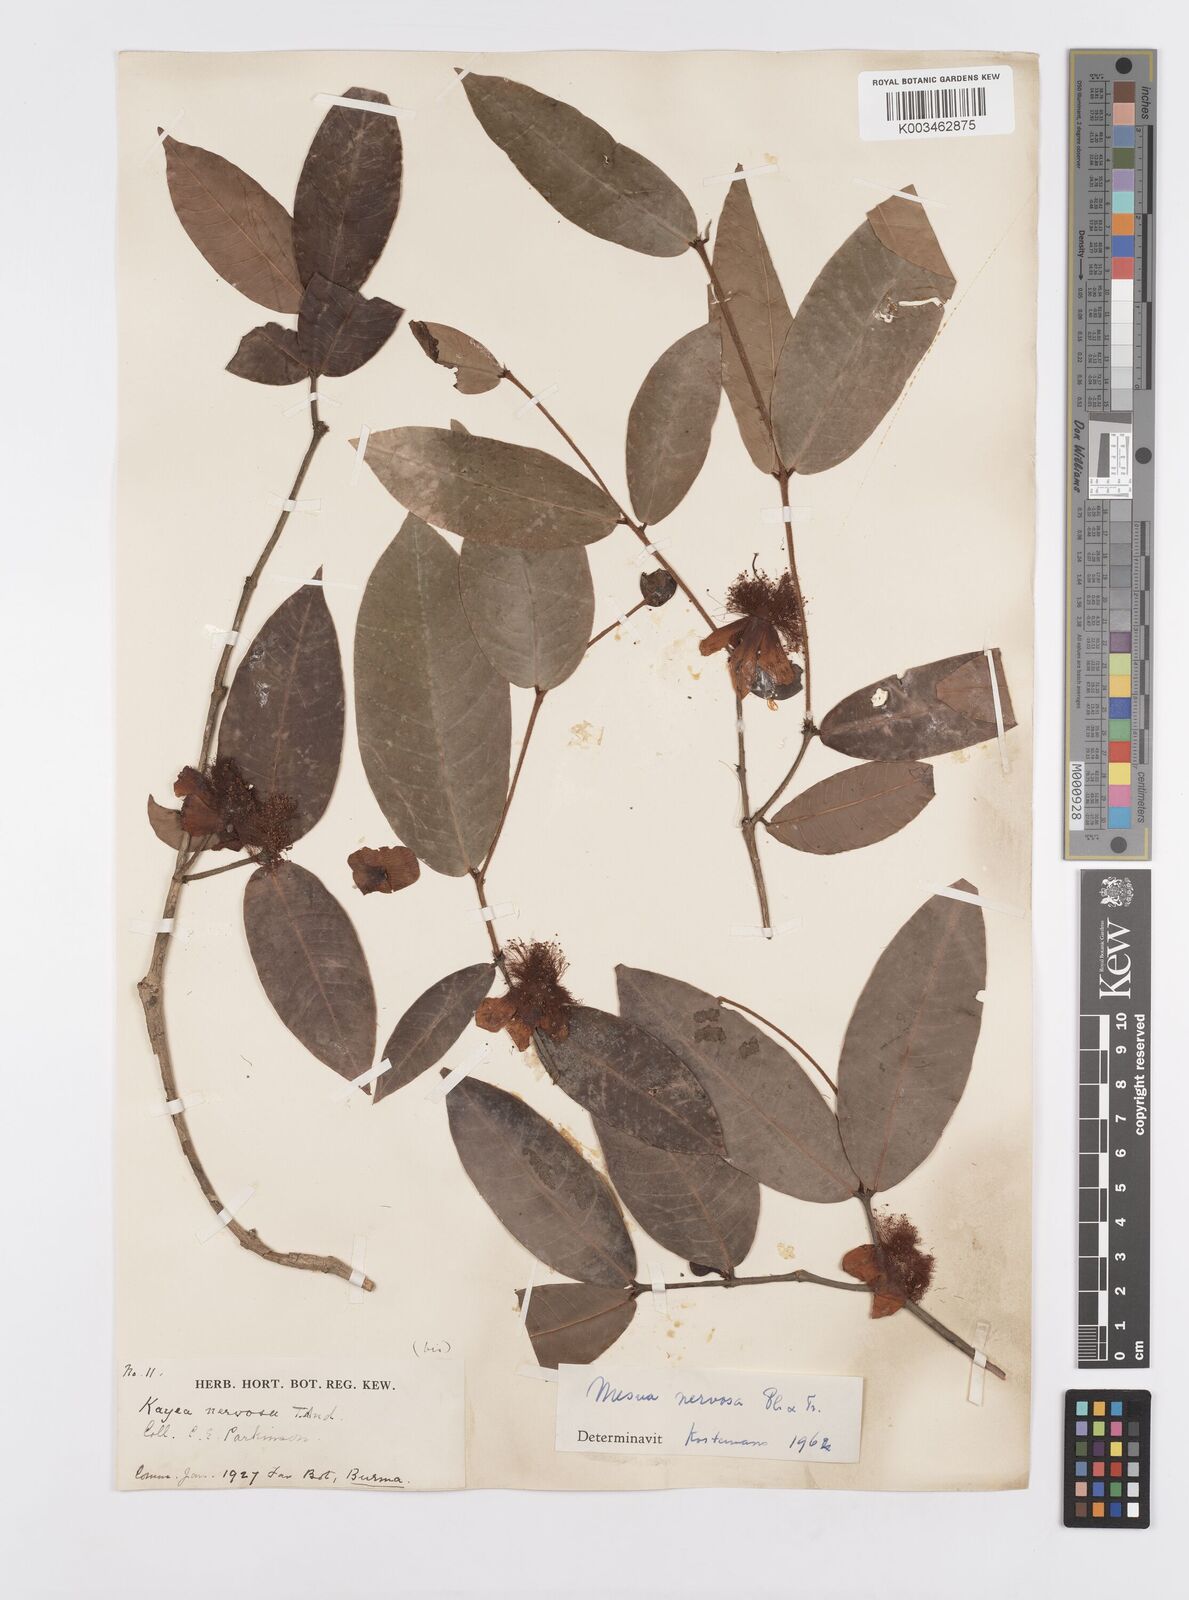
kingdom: Plantae
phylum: Tracheophyta
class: Magnoliopsida
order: Malpighiales
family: Calophyllaceae
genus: Kayea
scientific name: Kayea nervosa
